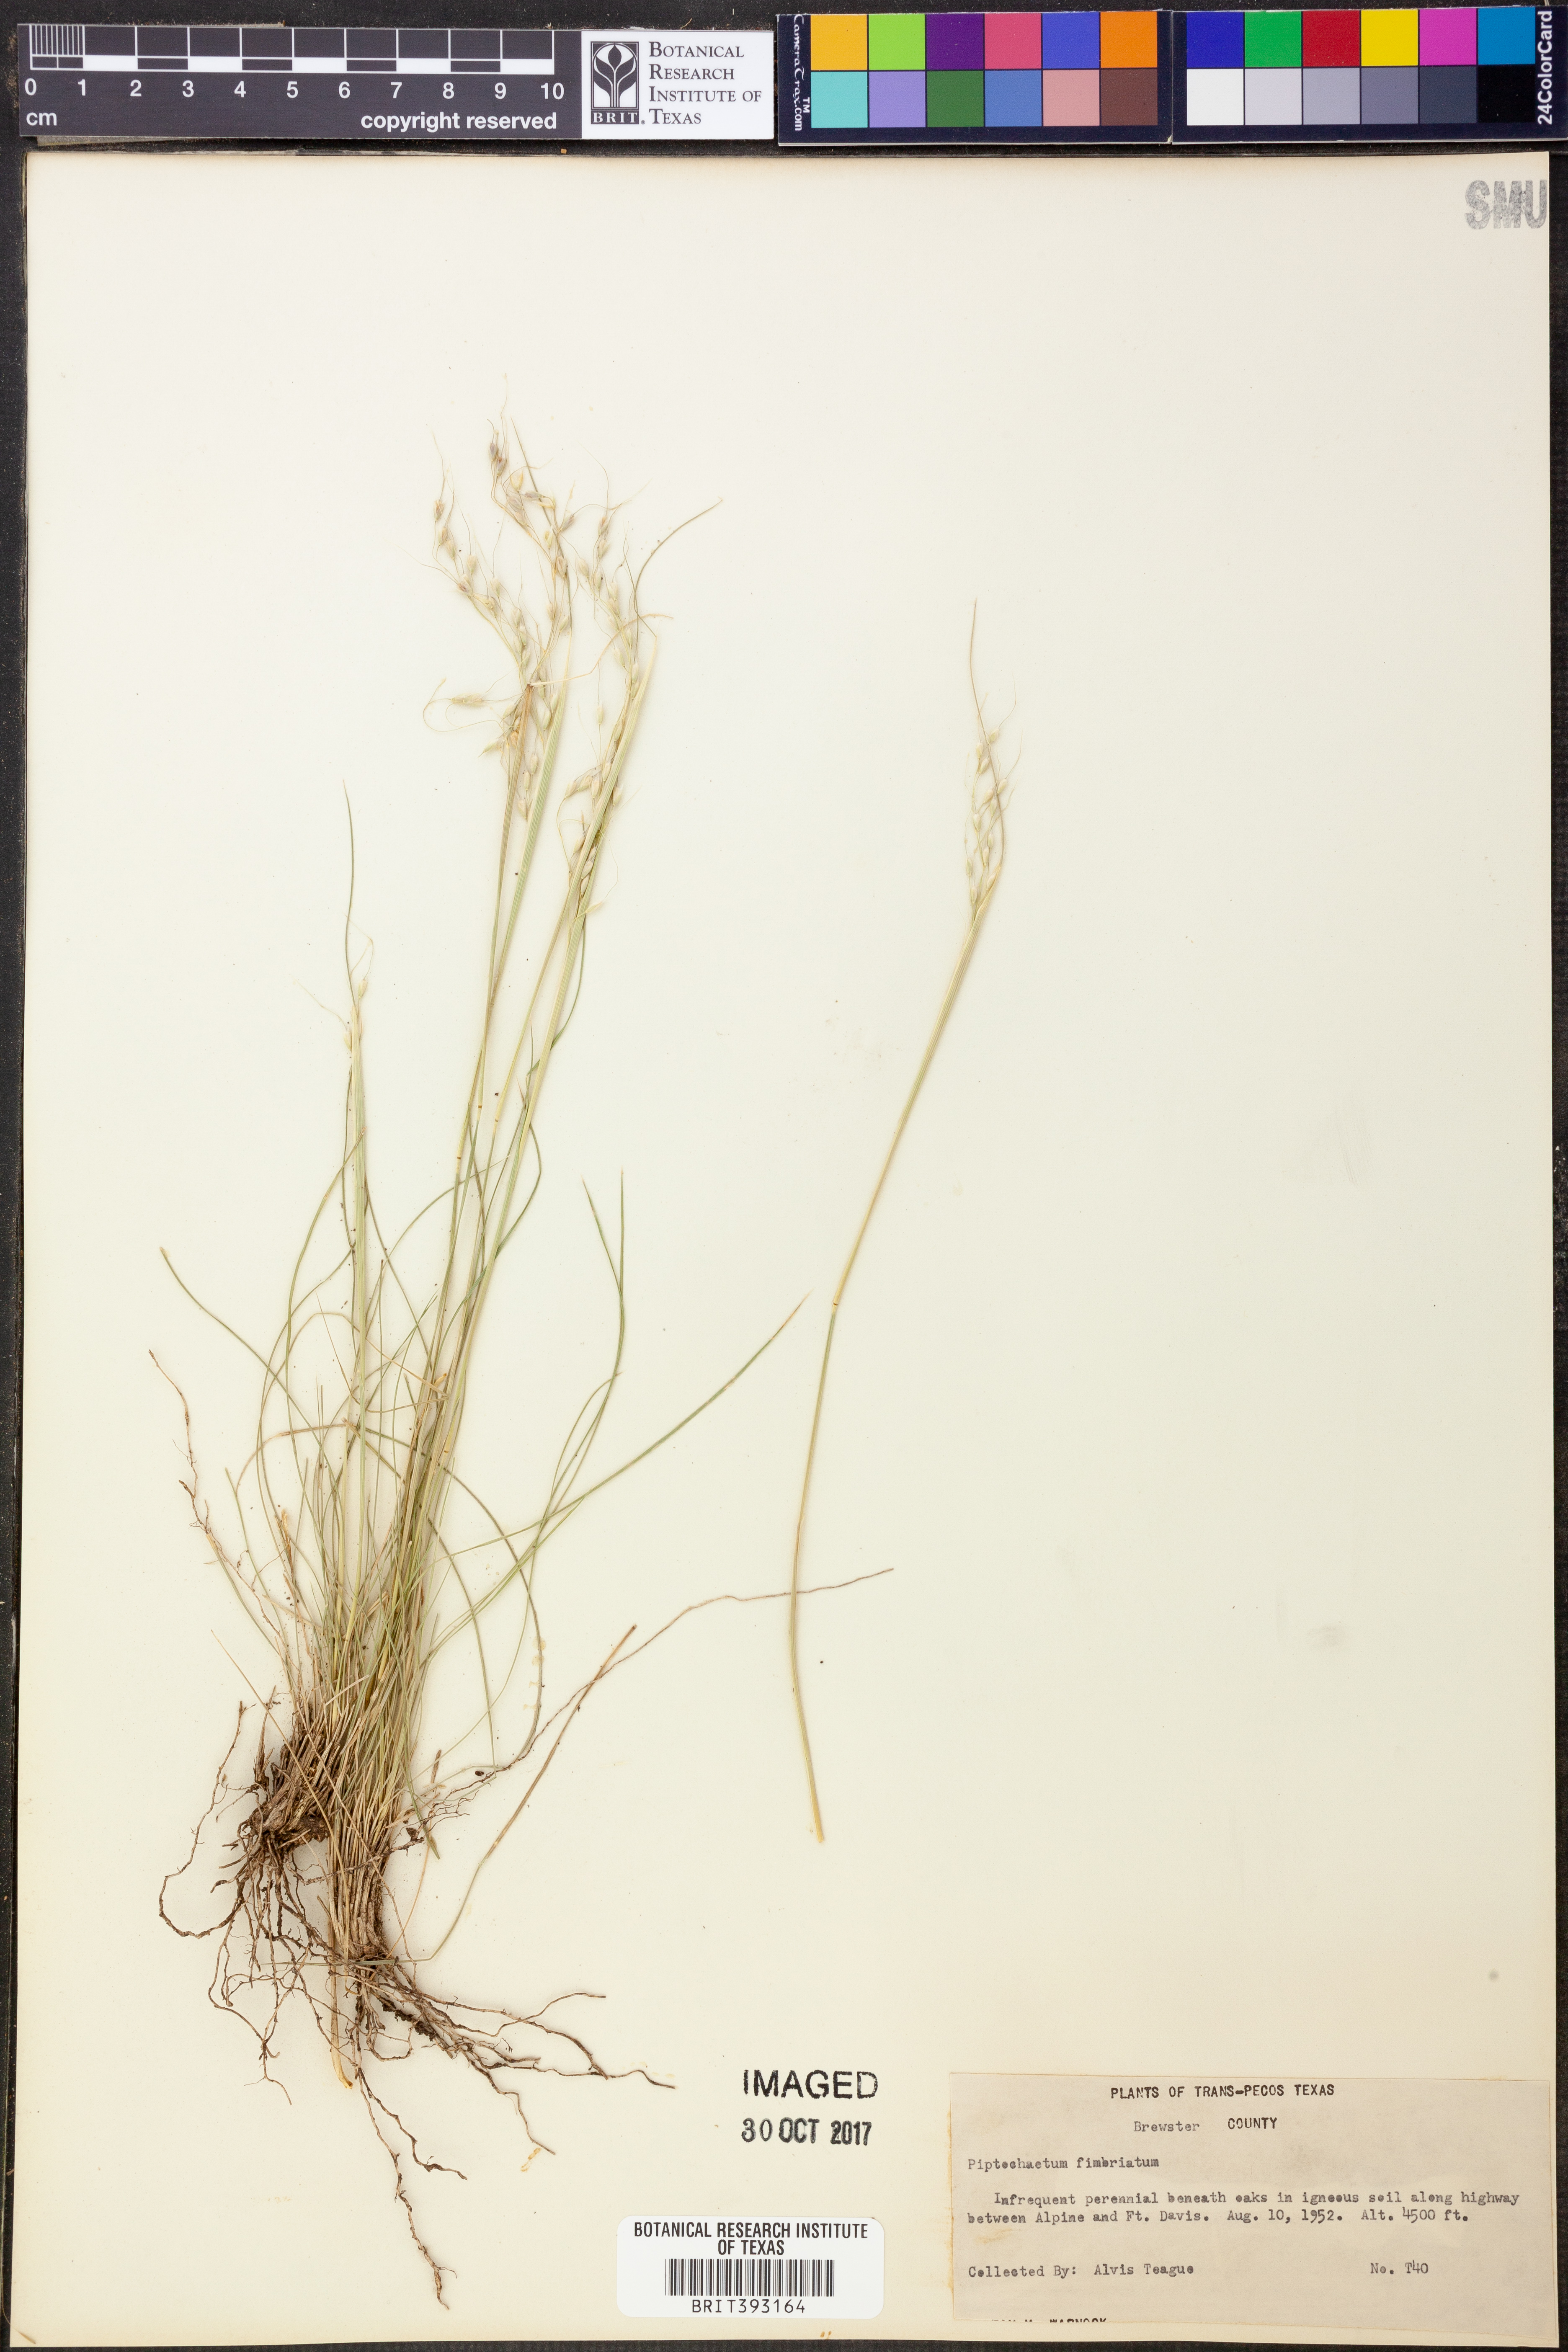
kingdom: Plantae
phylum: Tracheophyta
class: Liliopsida
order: Poales
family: Poaceae
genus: Piptochaetium
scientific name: Piptochaetium fimbriatum
